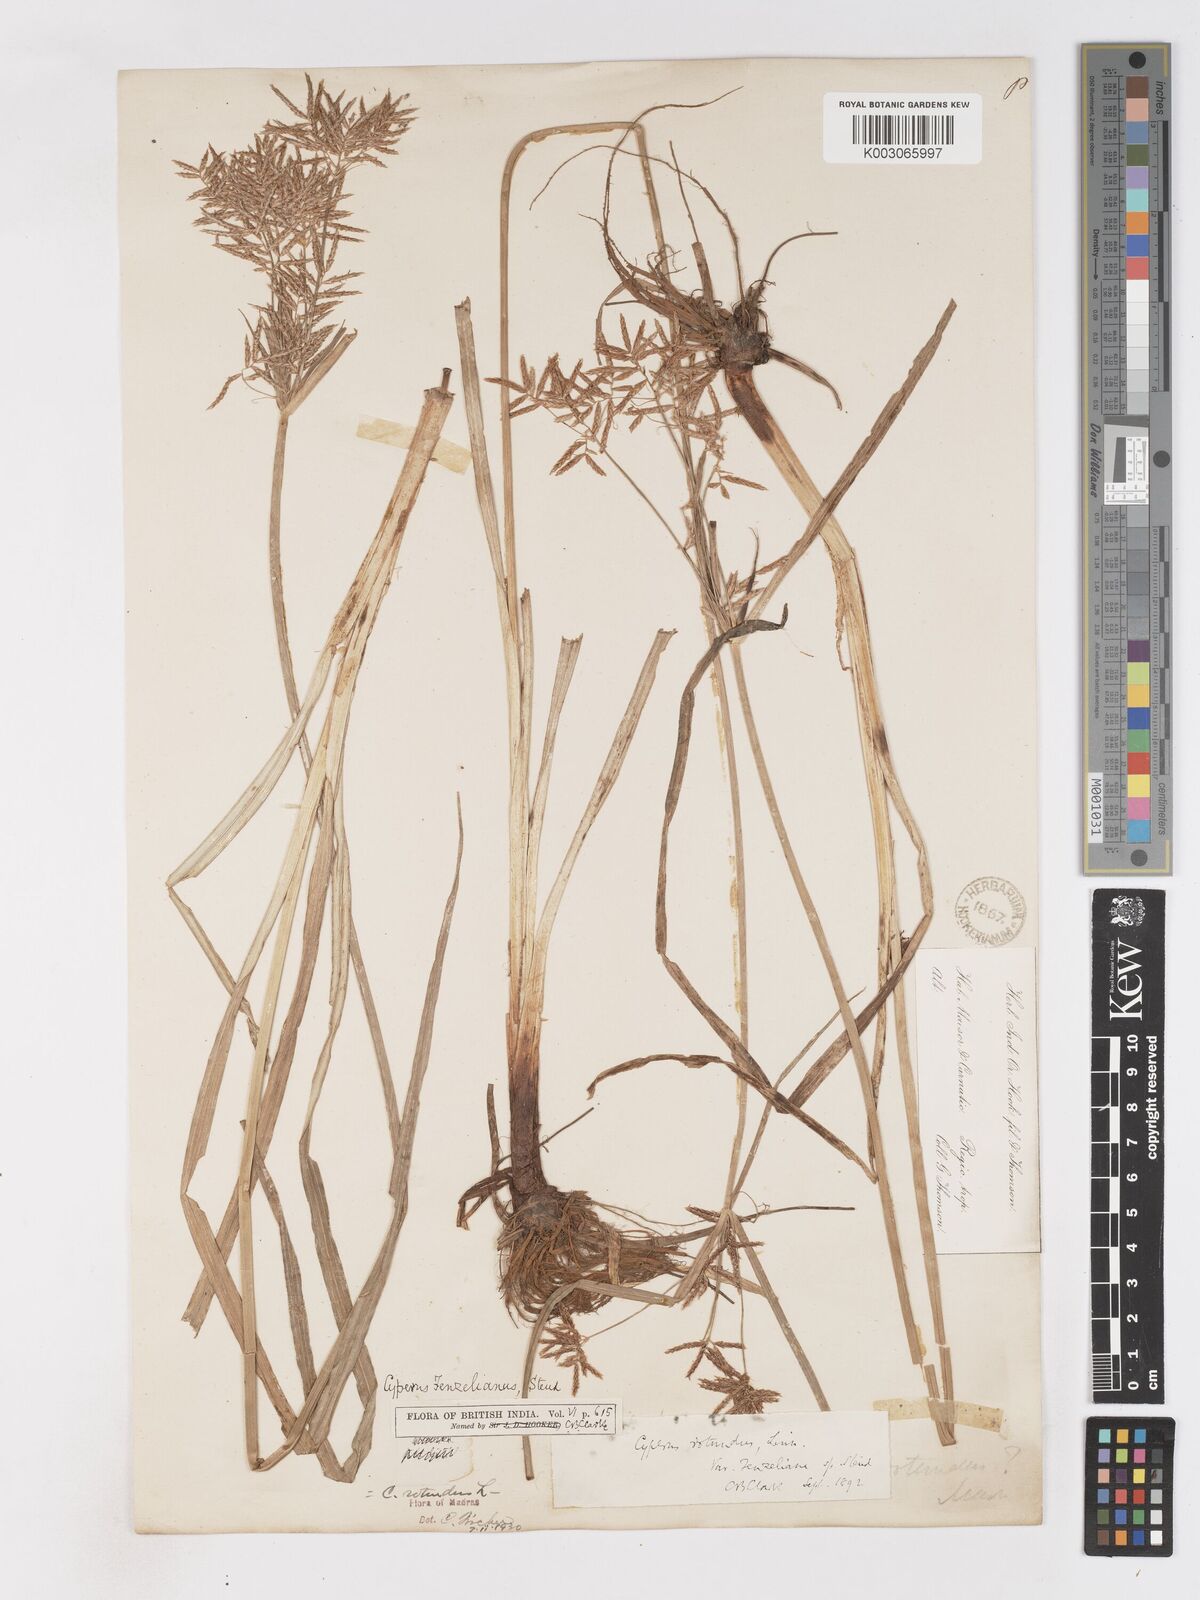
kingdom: Plantae
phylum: Tracheophyta
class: Liliopsida
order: Poales
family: Cyperaceae
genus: Cyperus
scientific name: Cyperus longus
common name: Galingale
